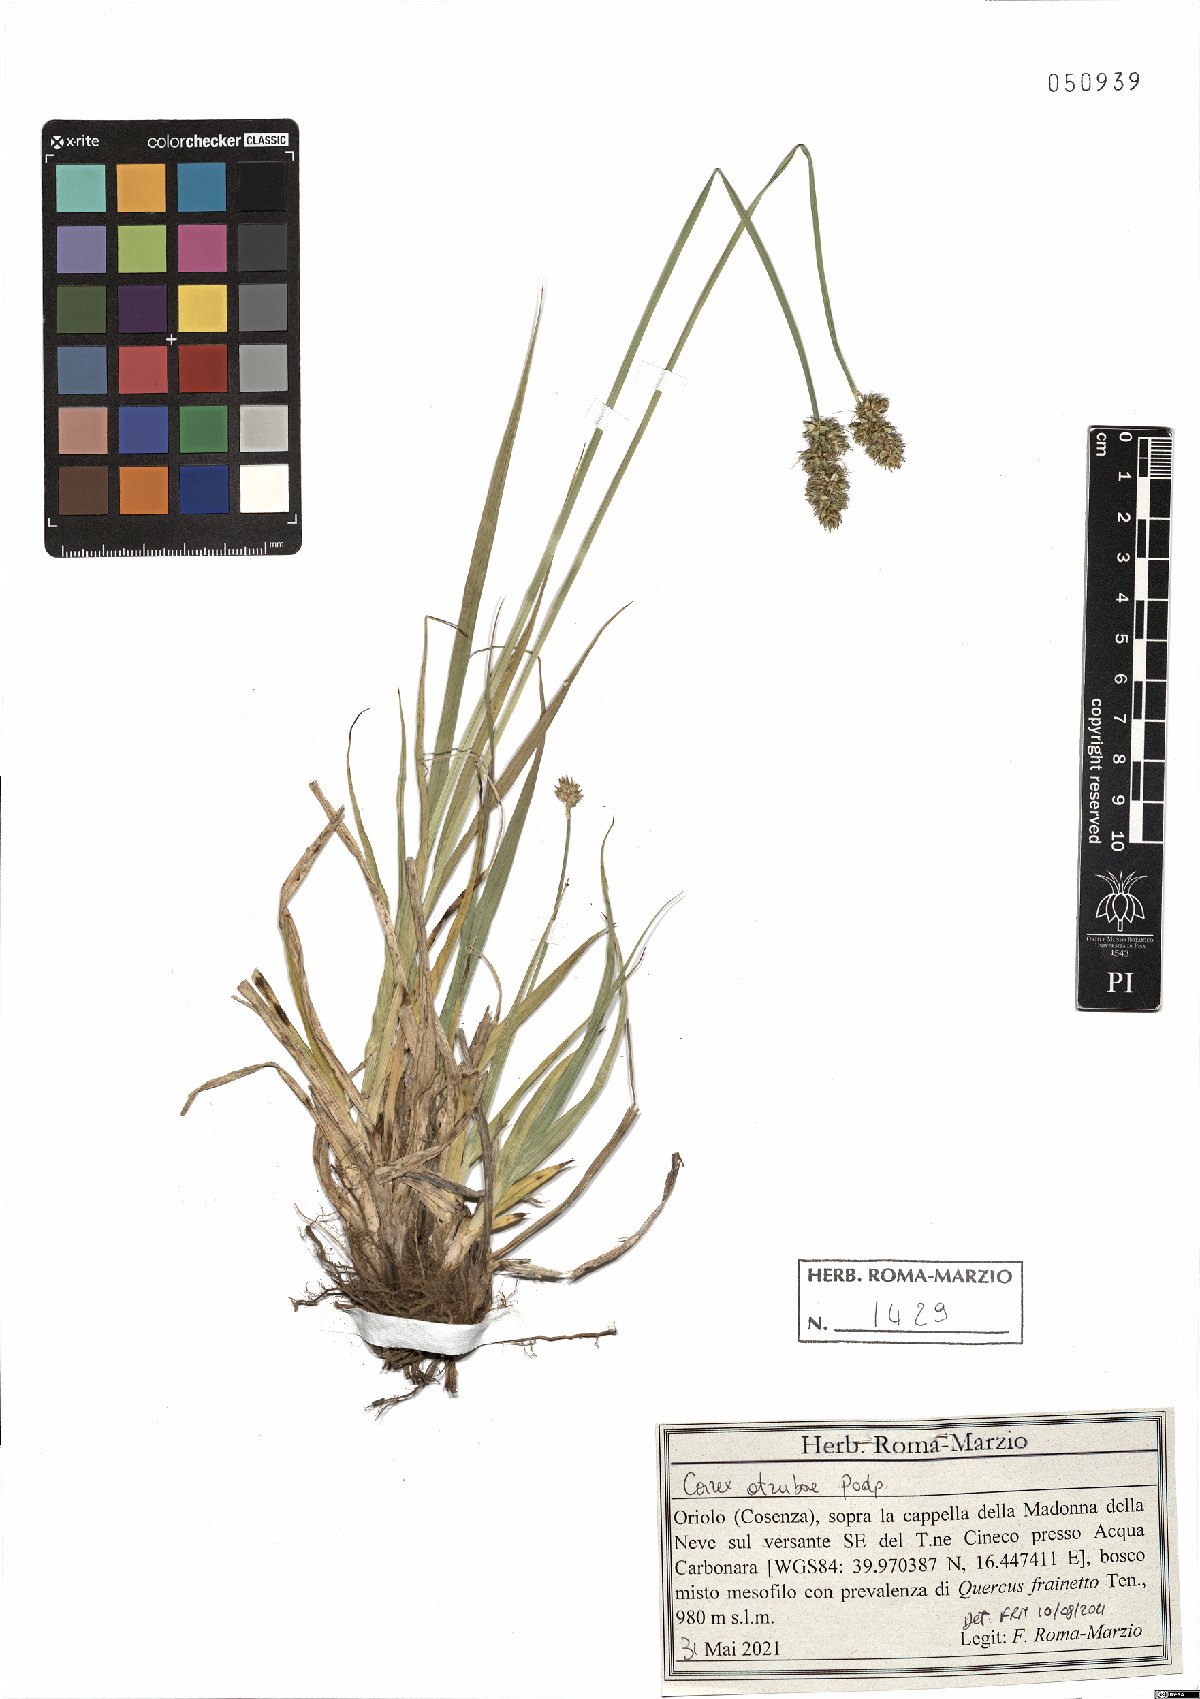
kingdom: Plantae
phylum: Tracheophyta
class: Liliopsida
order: Poales
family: Cyperaceae
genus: Carex
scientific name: Carex otrubae
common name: False fox-sedge
